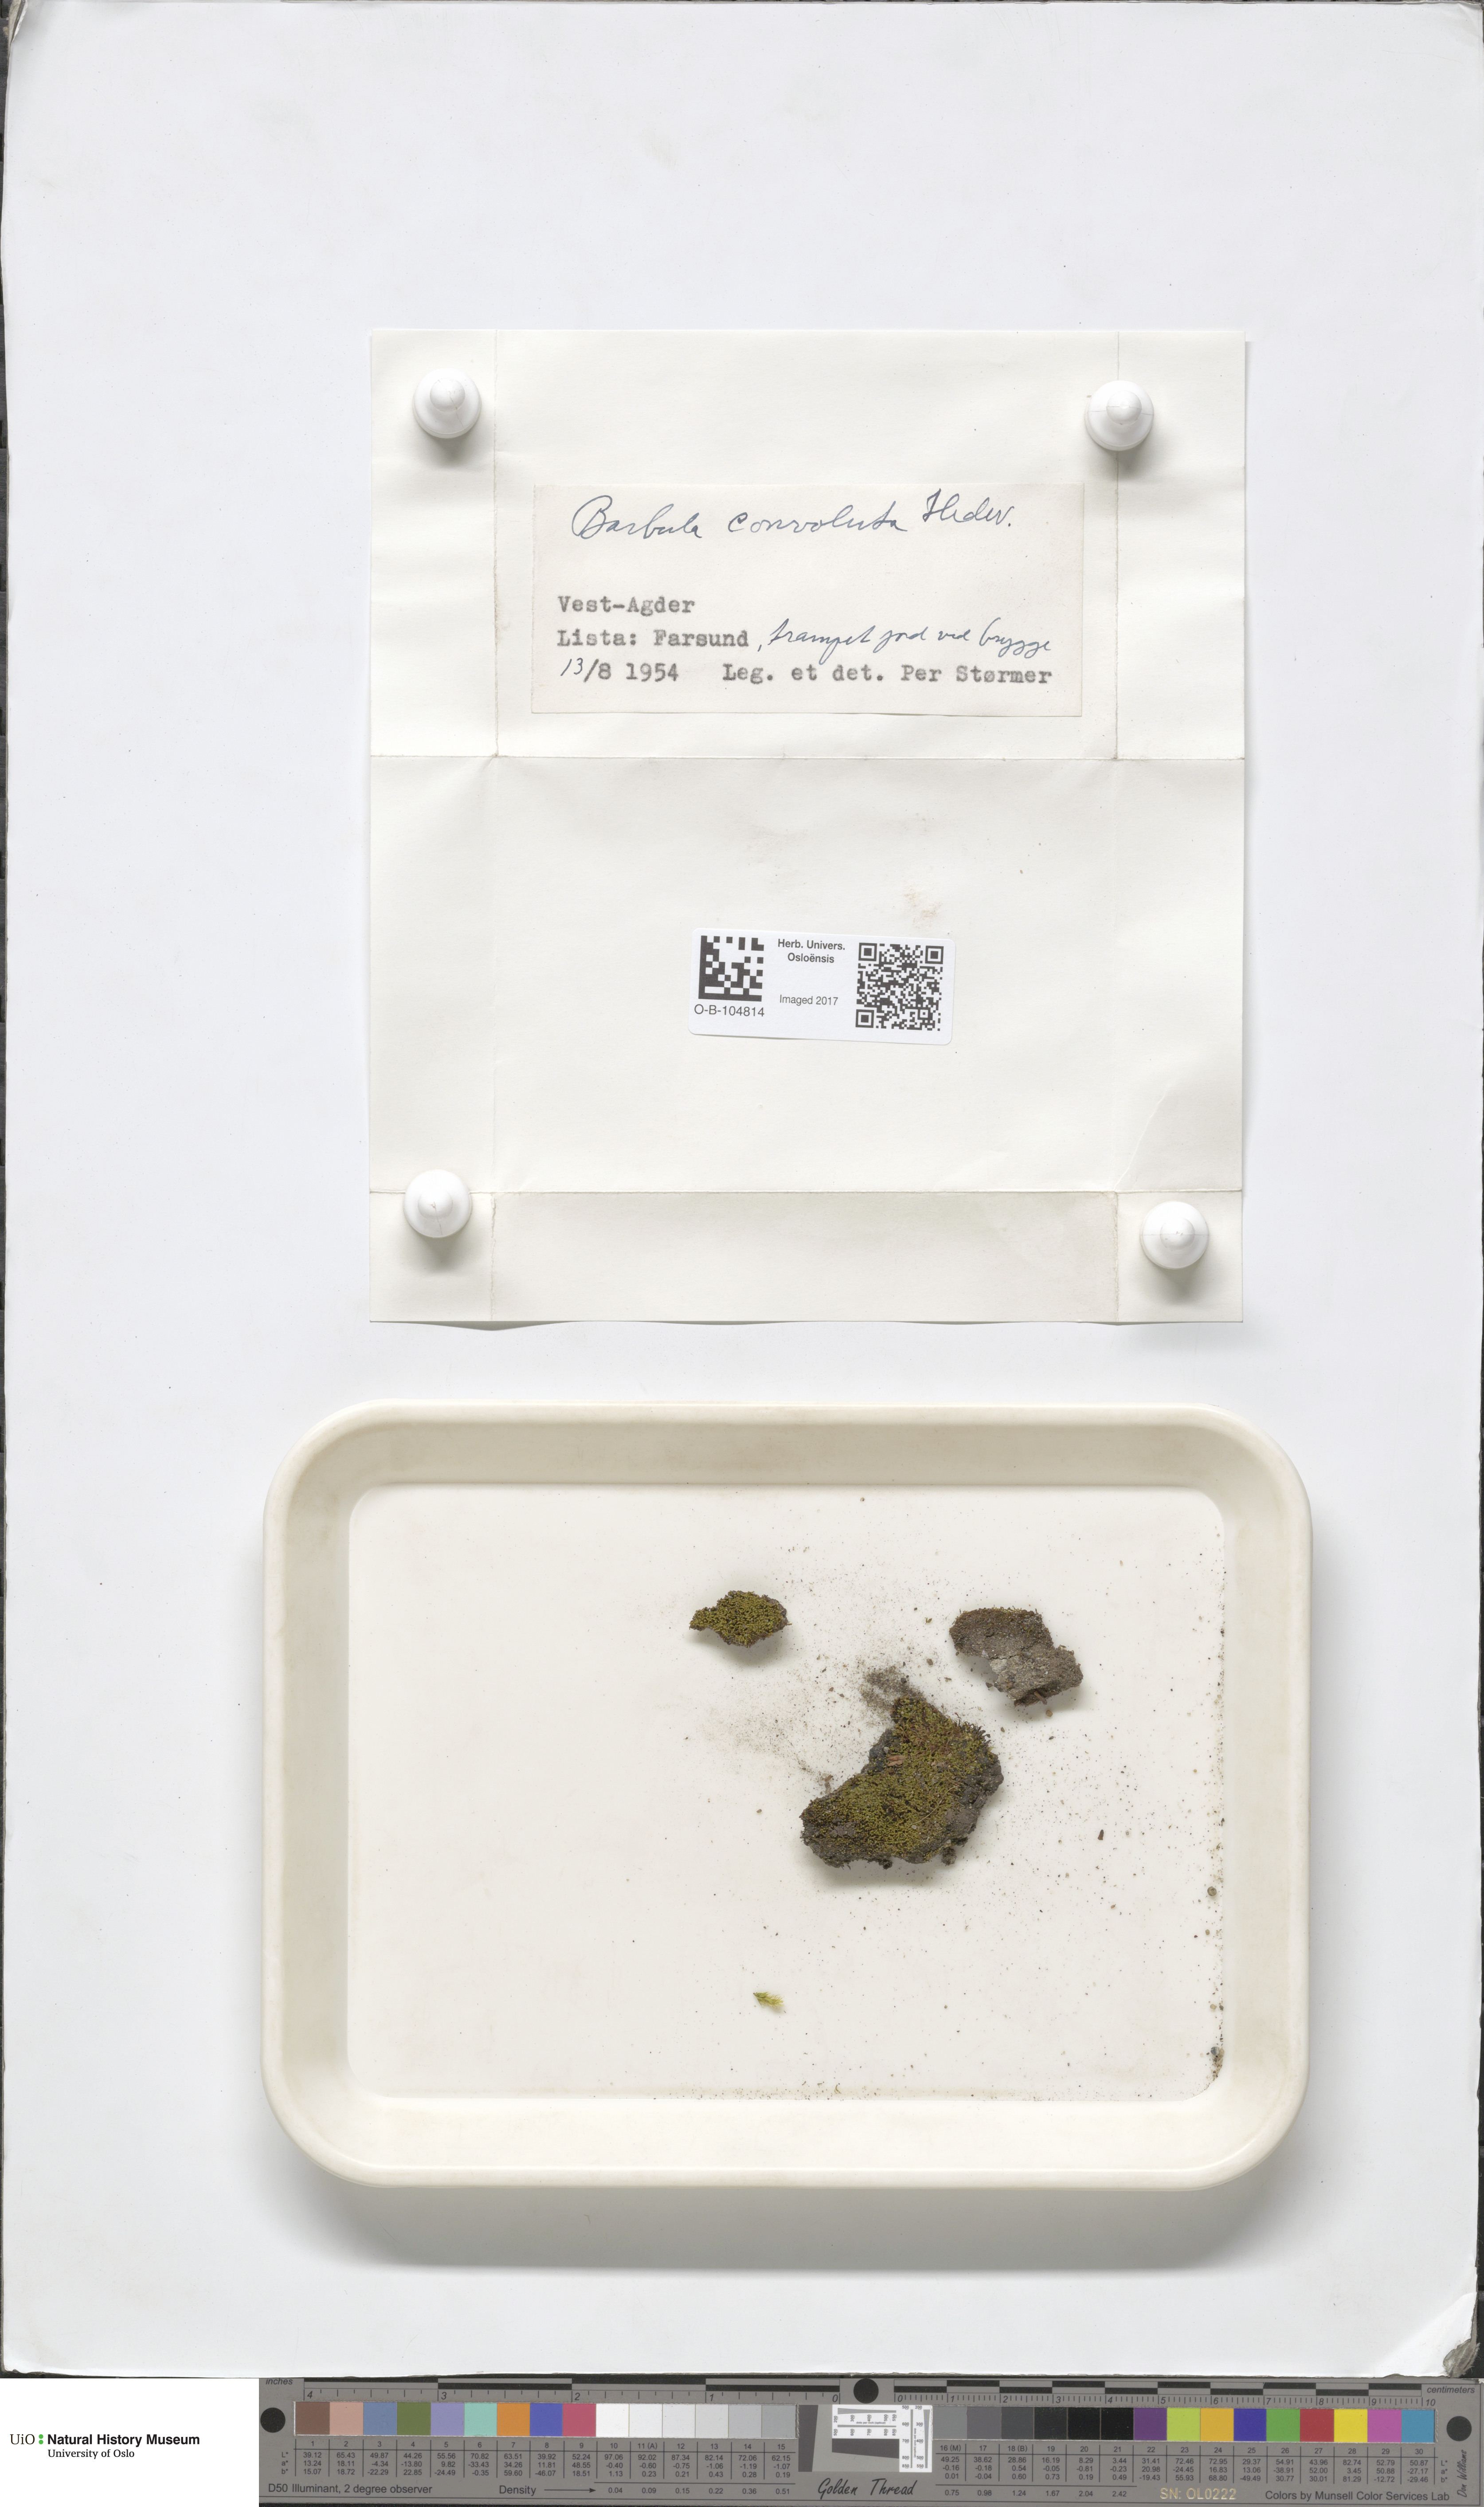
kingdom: Plantae
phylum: Bryophyta
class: Bryopsida
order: Pottiales
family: Pottiaceae
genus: Streblotrichum
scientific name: Streblotrichum convolutum
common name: Lesser bird's-claw beard-moss
